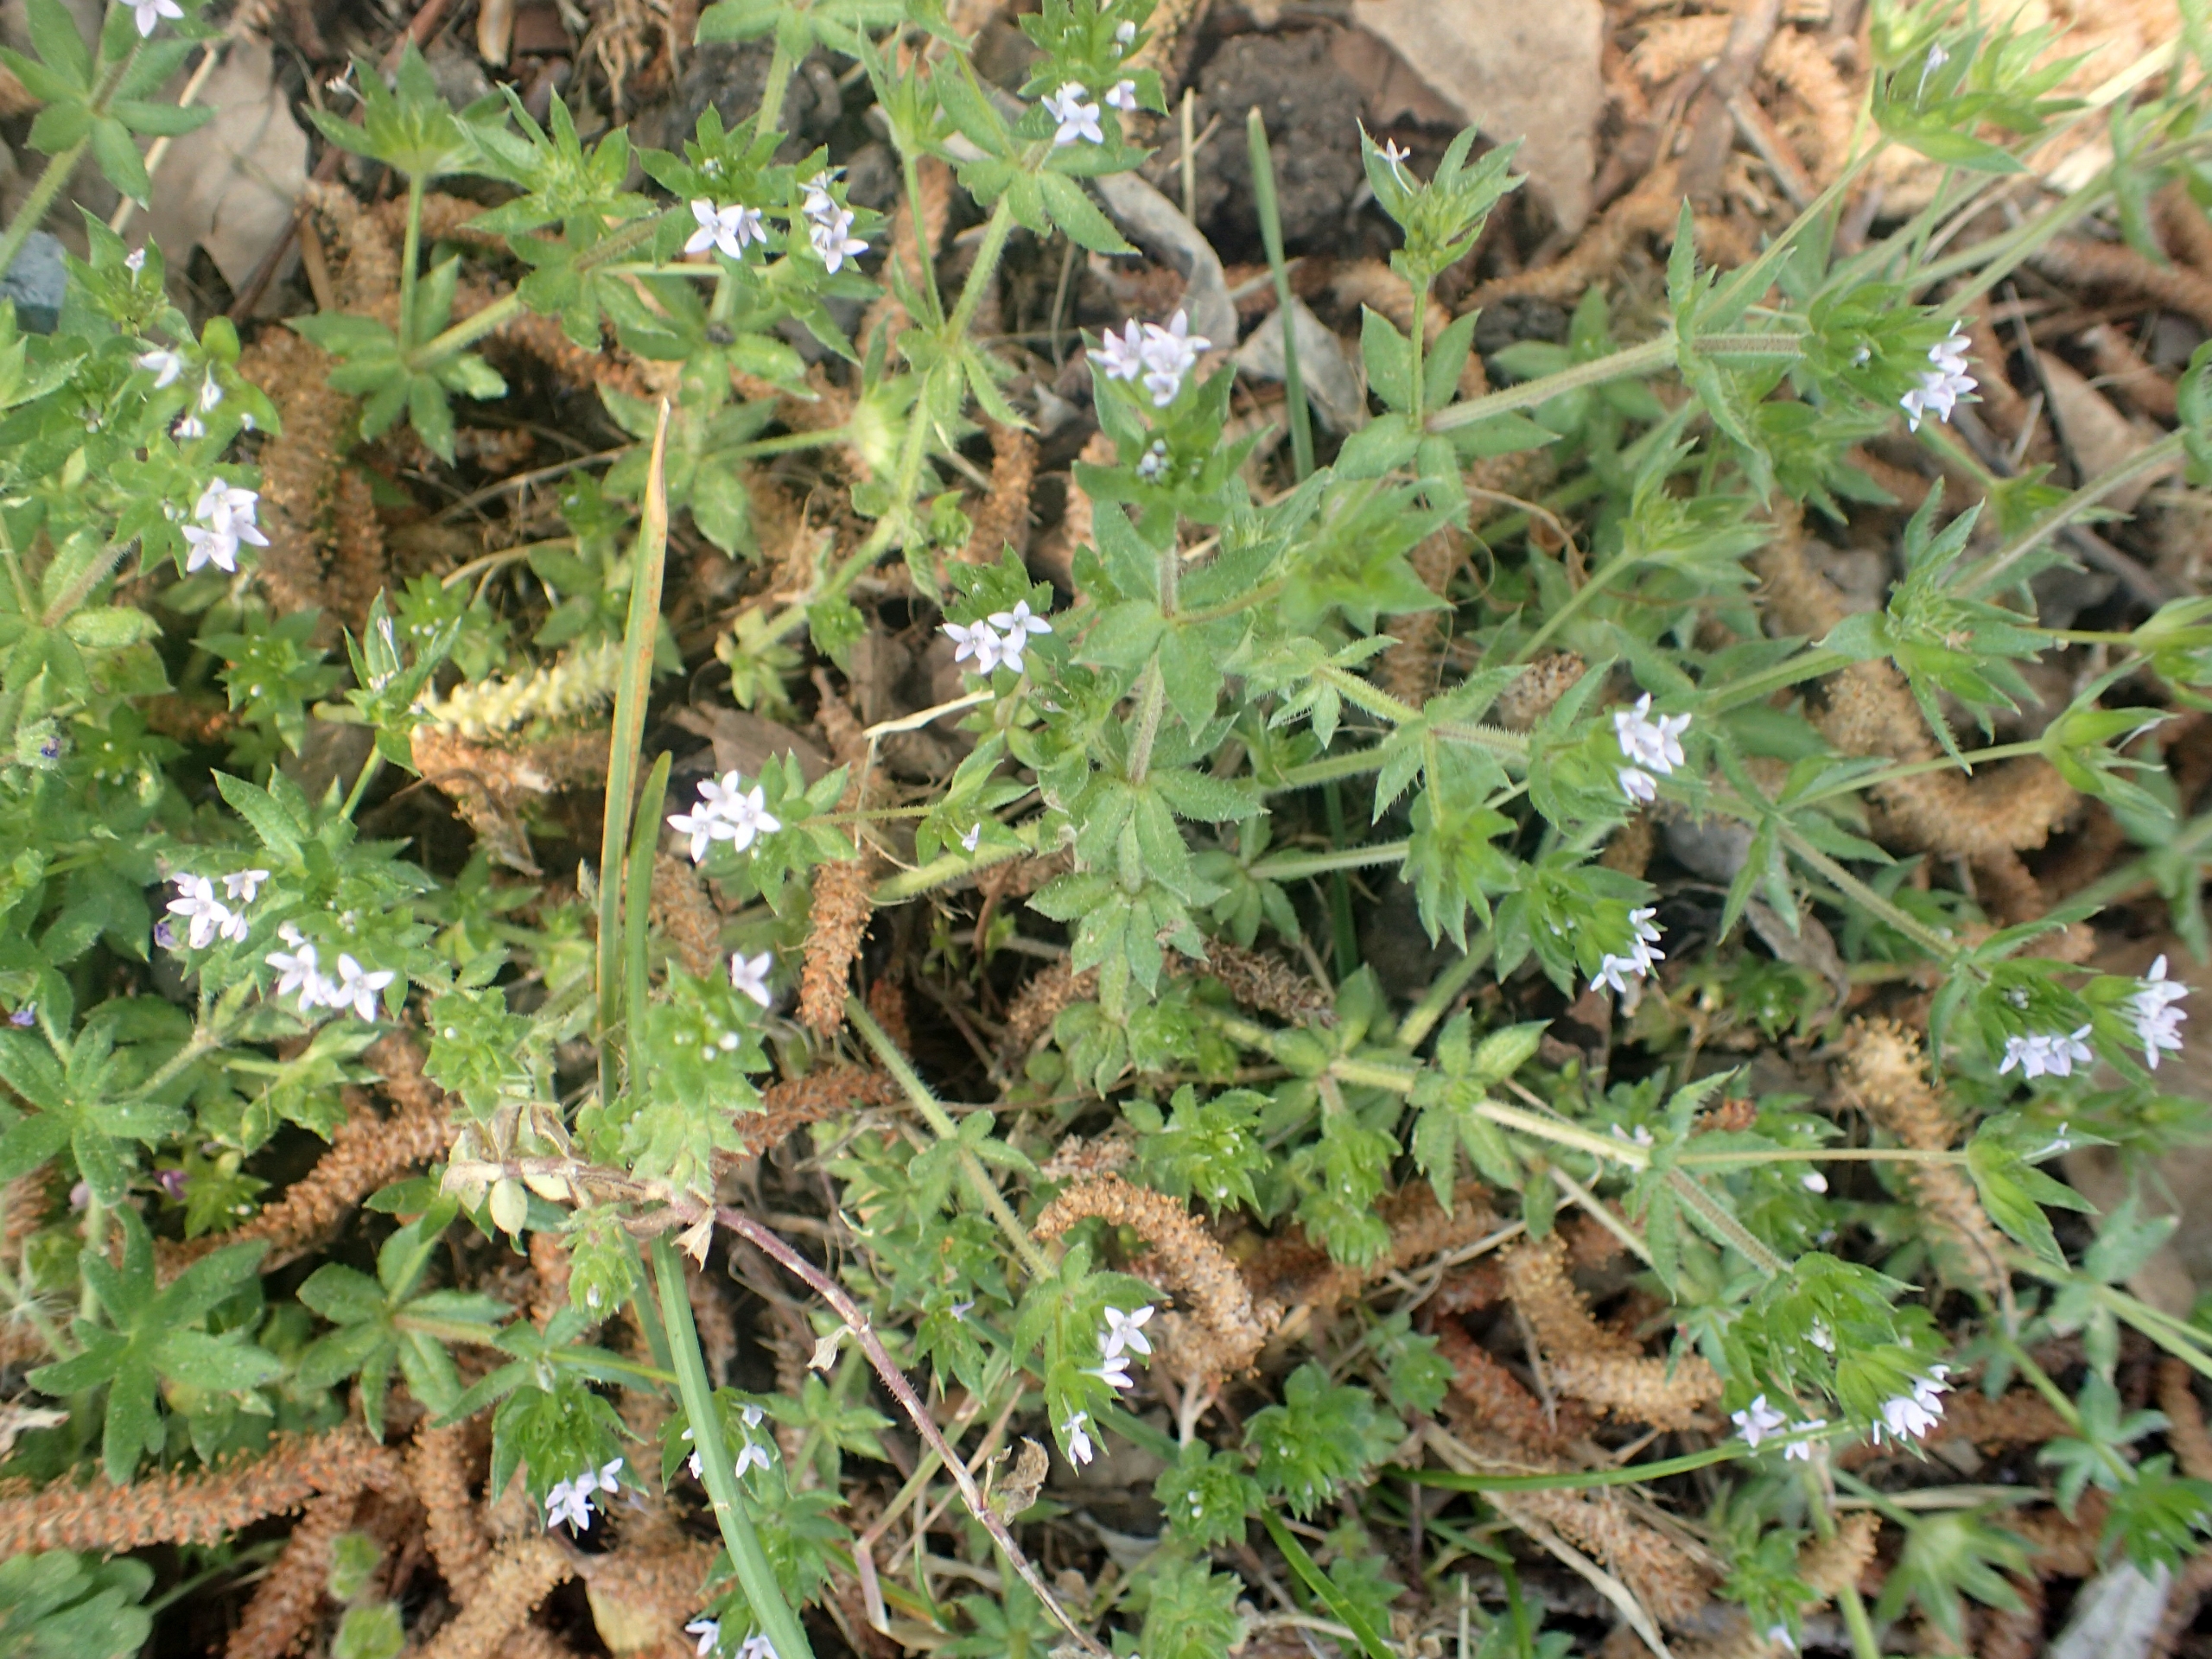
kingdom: Plantae
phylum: Tracheophyta
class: Magnoliopsida
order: Gentianales
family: Rubiaceae
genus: Sherardia
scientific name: Sherardia arvensis
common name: Blåstjerne
